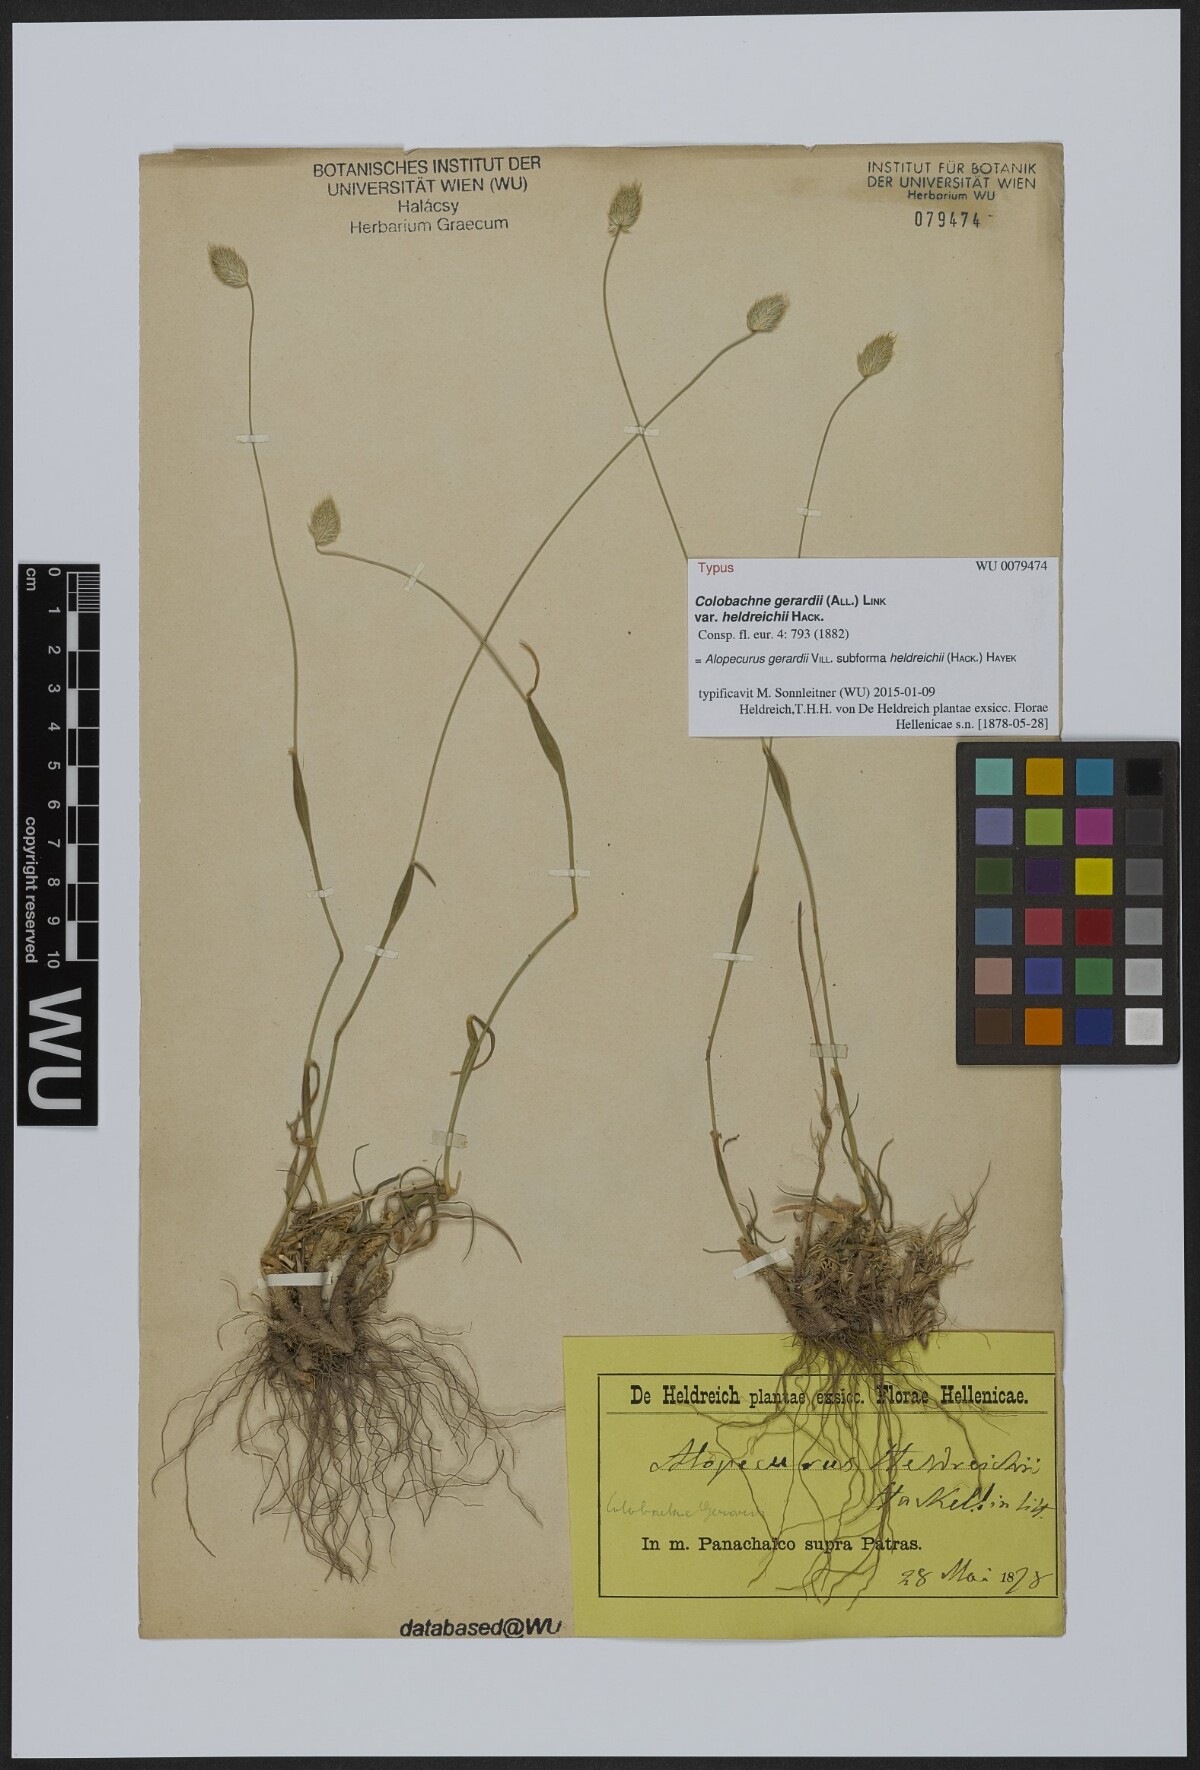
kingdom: Plantae
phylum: Tracheophyta
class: Liliopsida
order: Poales
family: Poaceae
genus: Festuca
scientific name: Festuca jeanpertii
